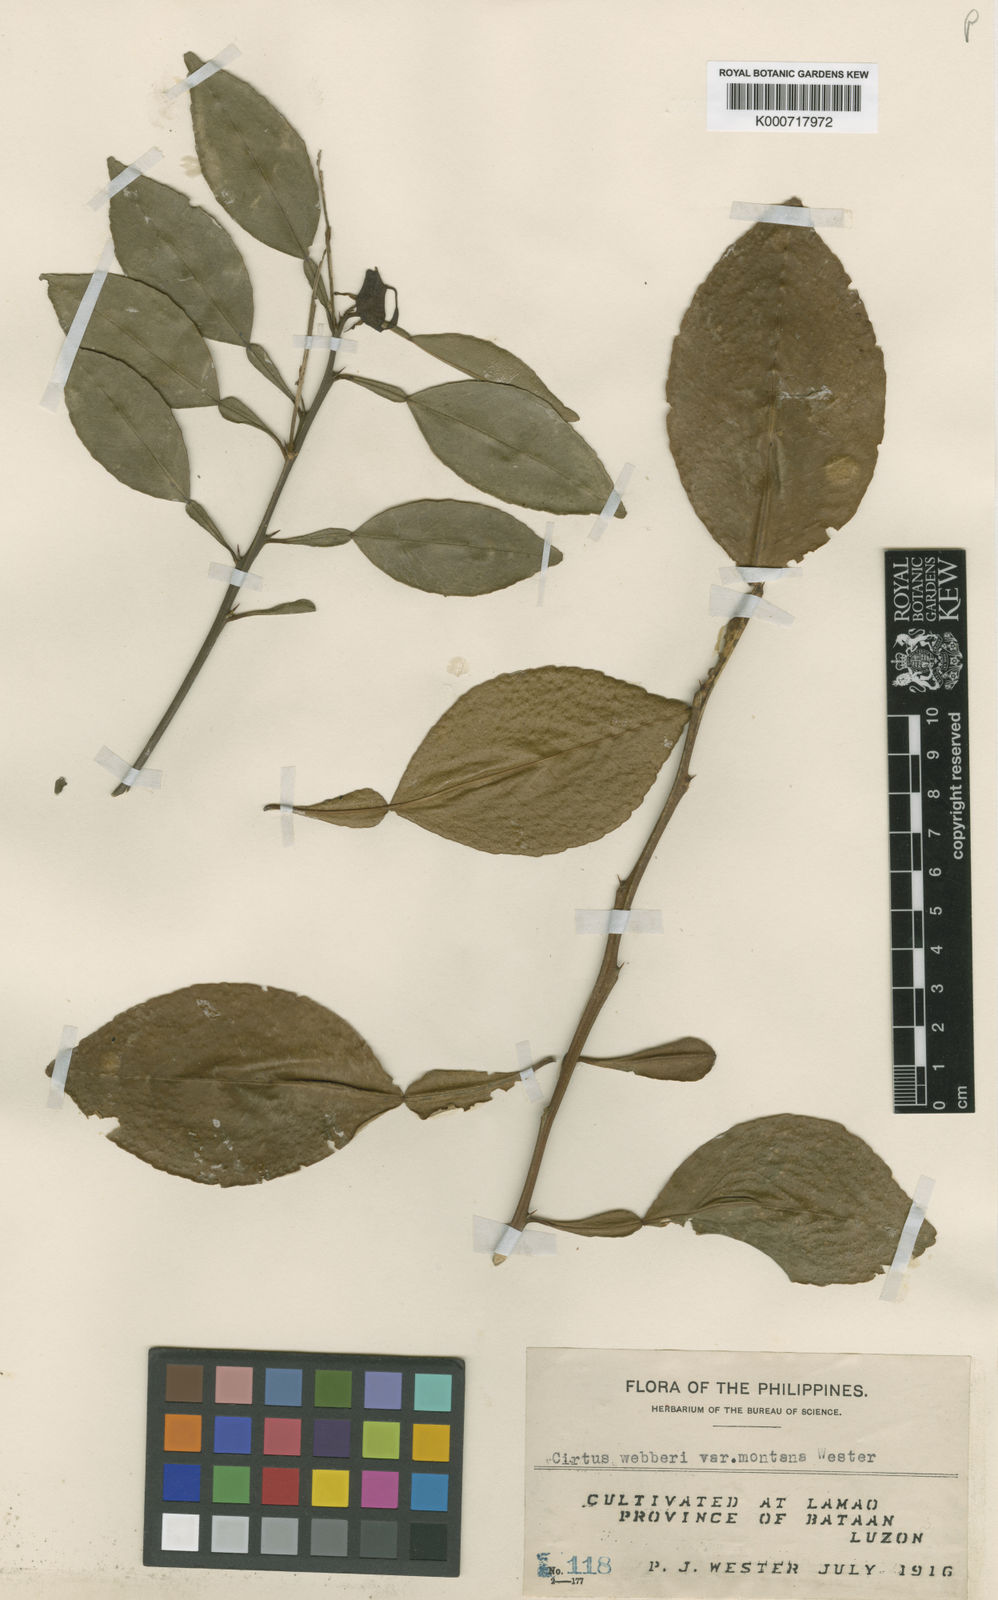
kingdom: Plantae
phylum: Tracheophyta
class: Magnoliopsida
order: Sapindales
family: Rutaceae
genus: Citrus
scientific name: Citrus webberi
